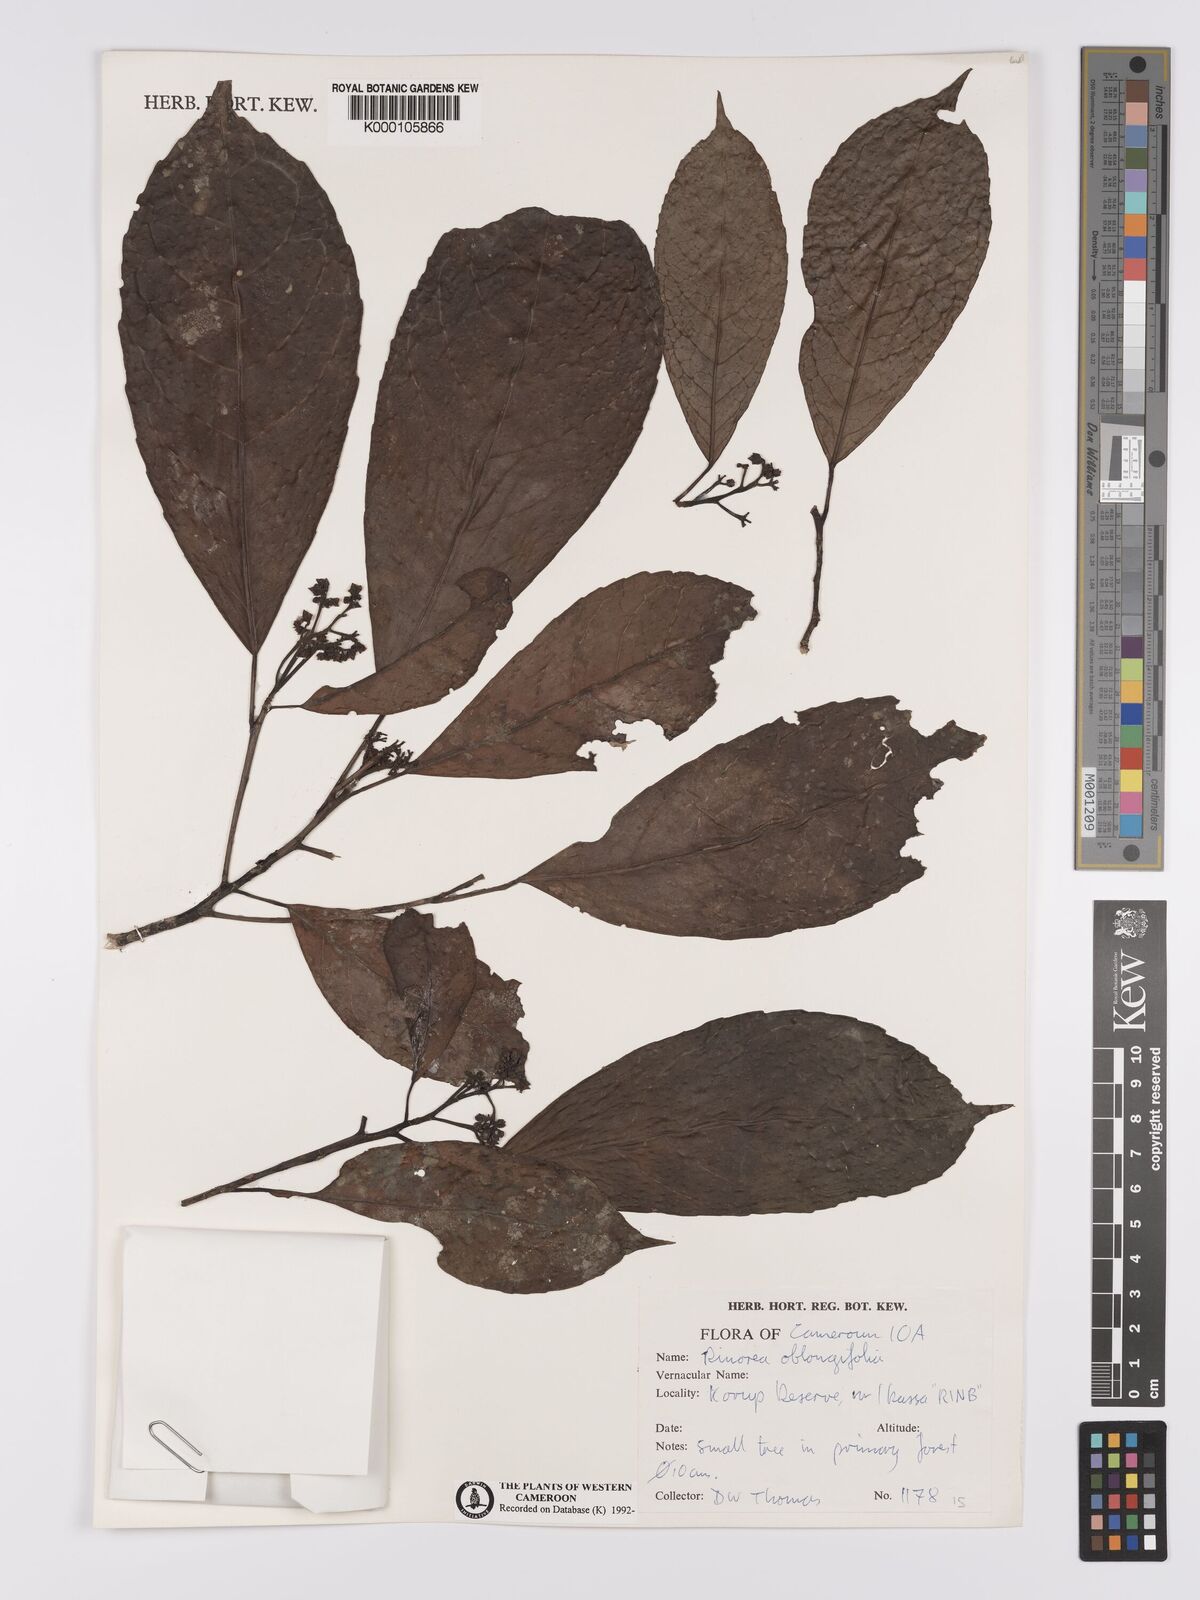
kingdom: Plantae
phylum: Tracheophyta
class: Magnoliopsida
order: Apiales
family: Pittosporaceae
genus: Marianthus
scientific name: Marianthus coeruleopunctatus
